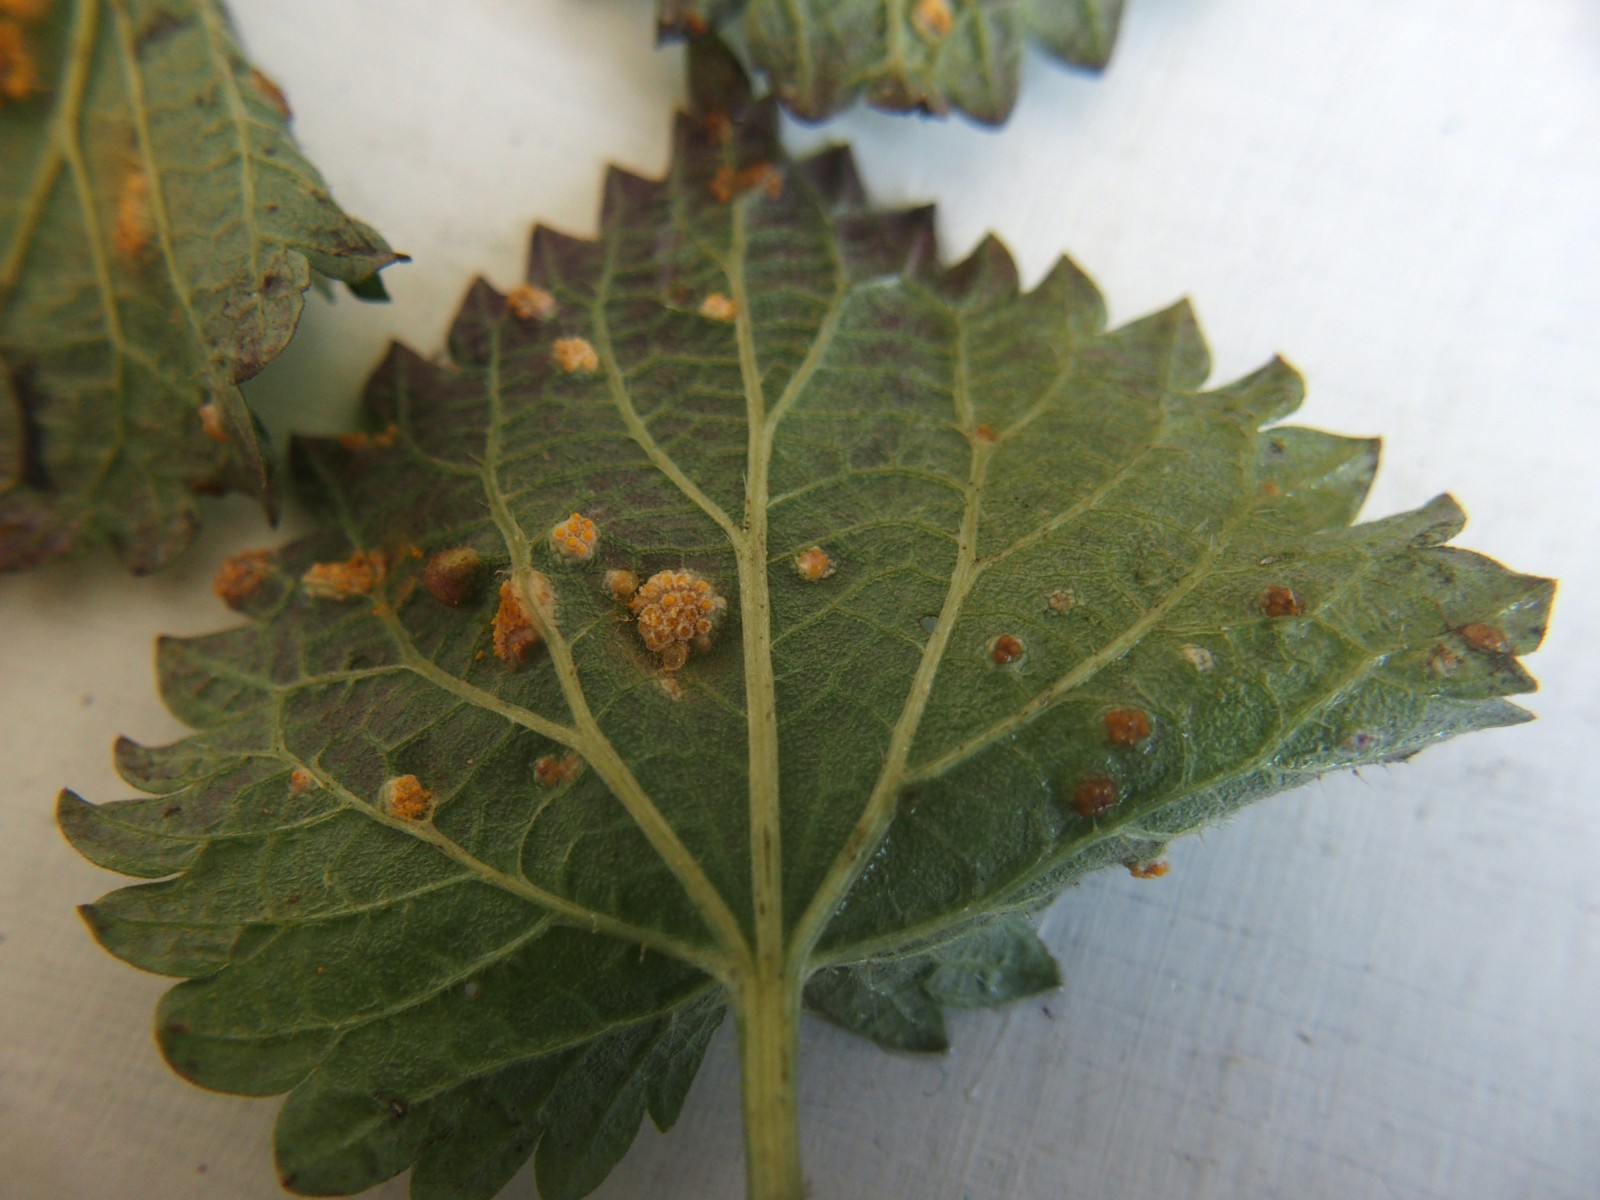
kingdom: Fungi
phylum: Basidiomycota
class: Pucciniomycetes
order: Pucciniales
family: Pucciniaceae
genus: Puccinia
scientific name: Puccinia urticata
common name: nældegalle-tvecellerust
